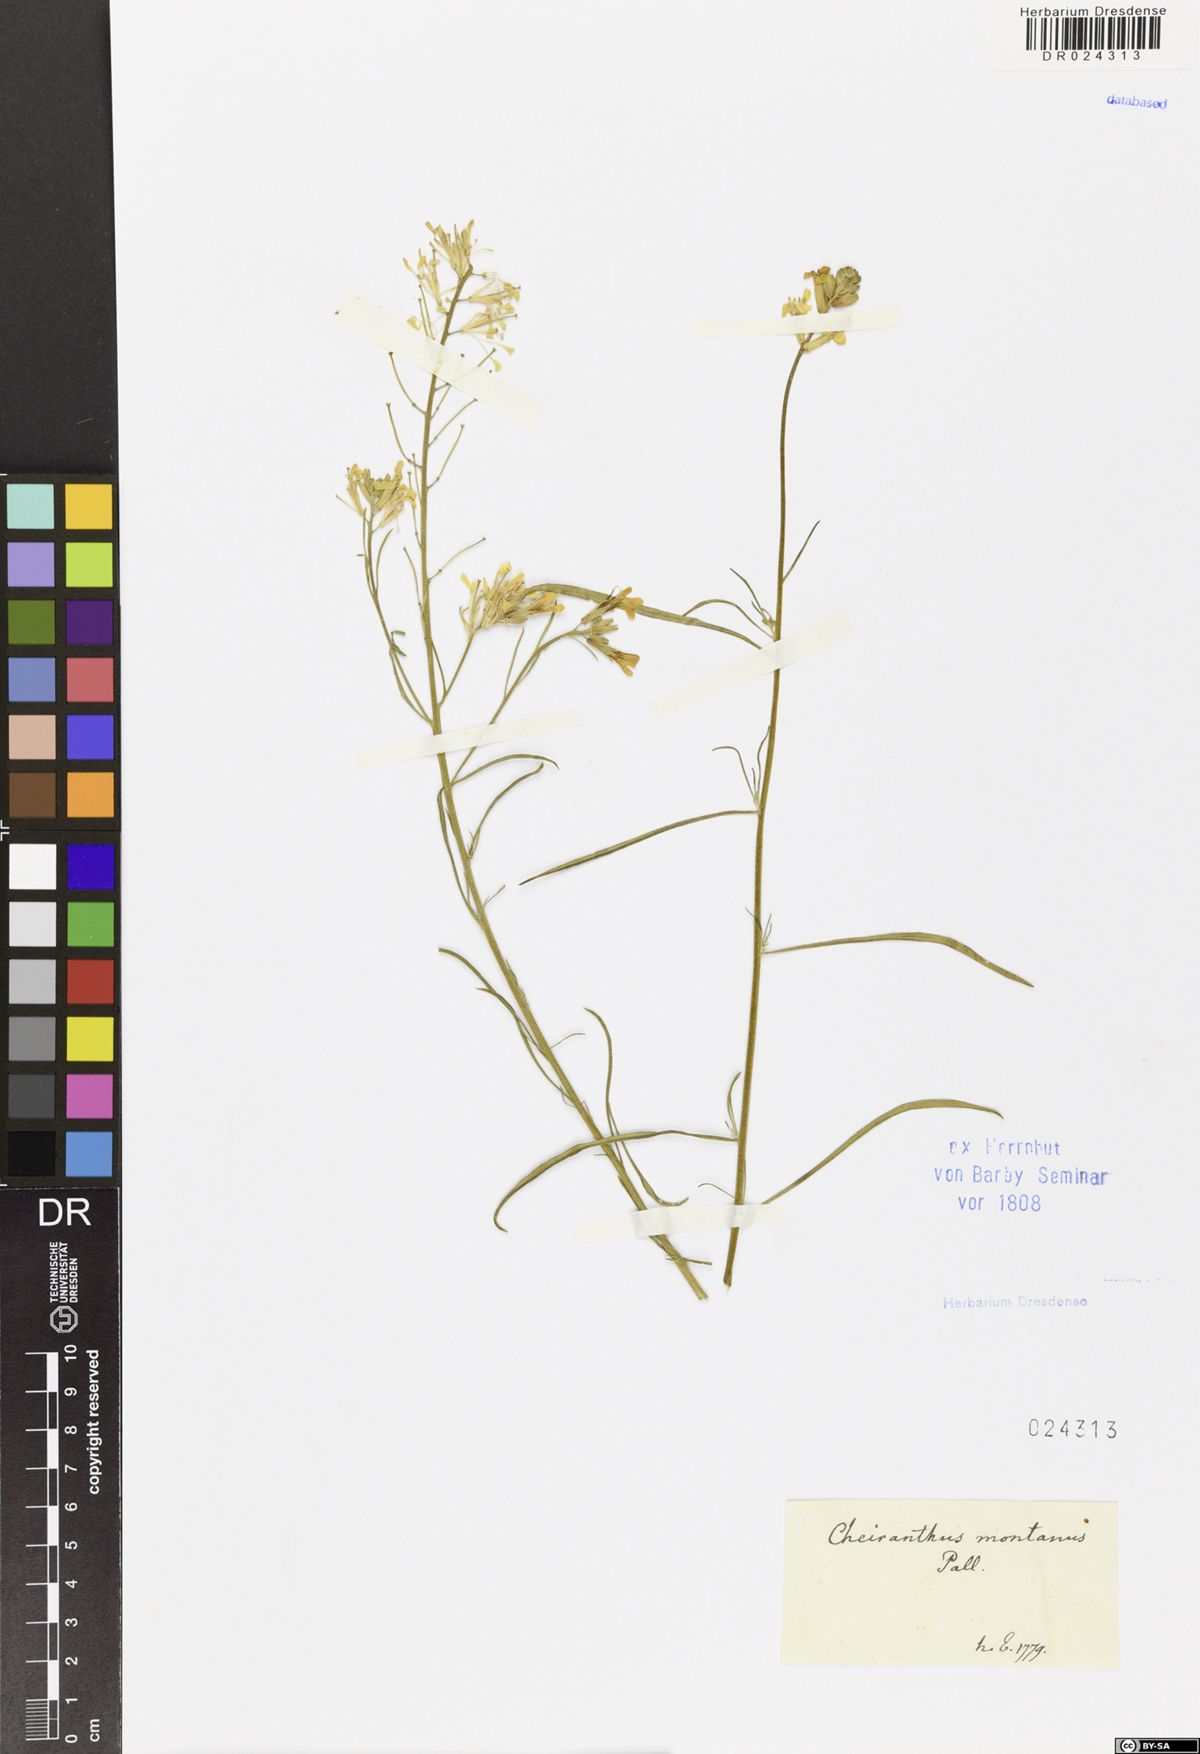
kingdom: Plantae
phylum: Tracheophyta
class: Magnoliopsida
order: Brassicales
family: Brassicaceae
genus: Erysimum
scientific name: Erysimum quadrangulum
